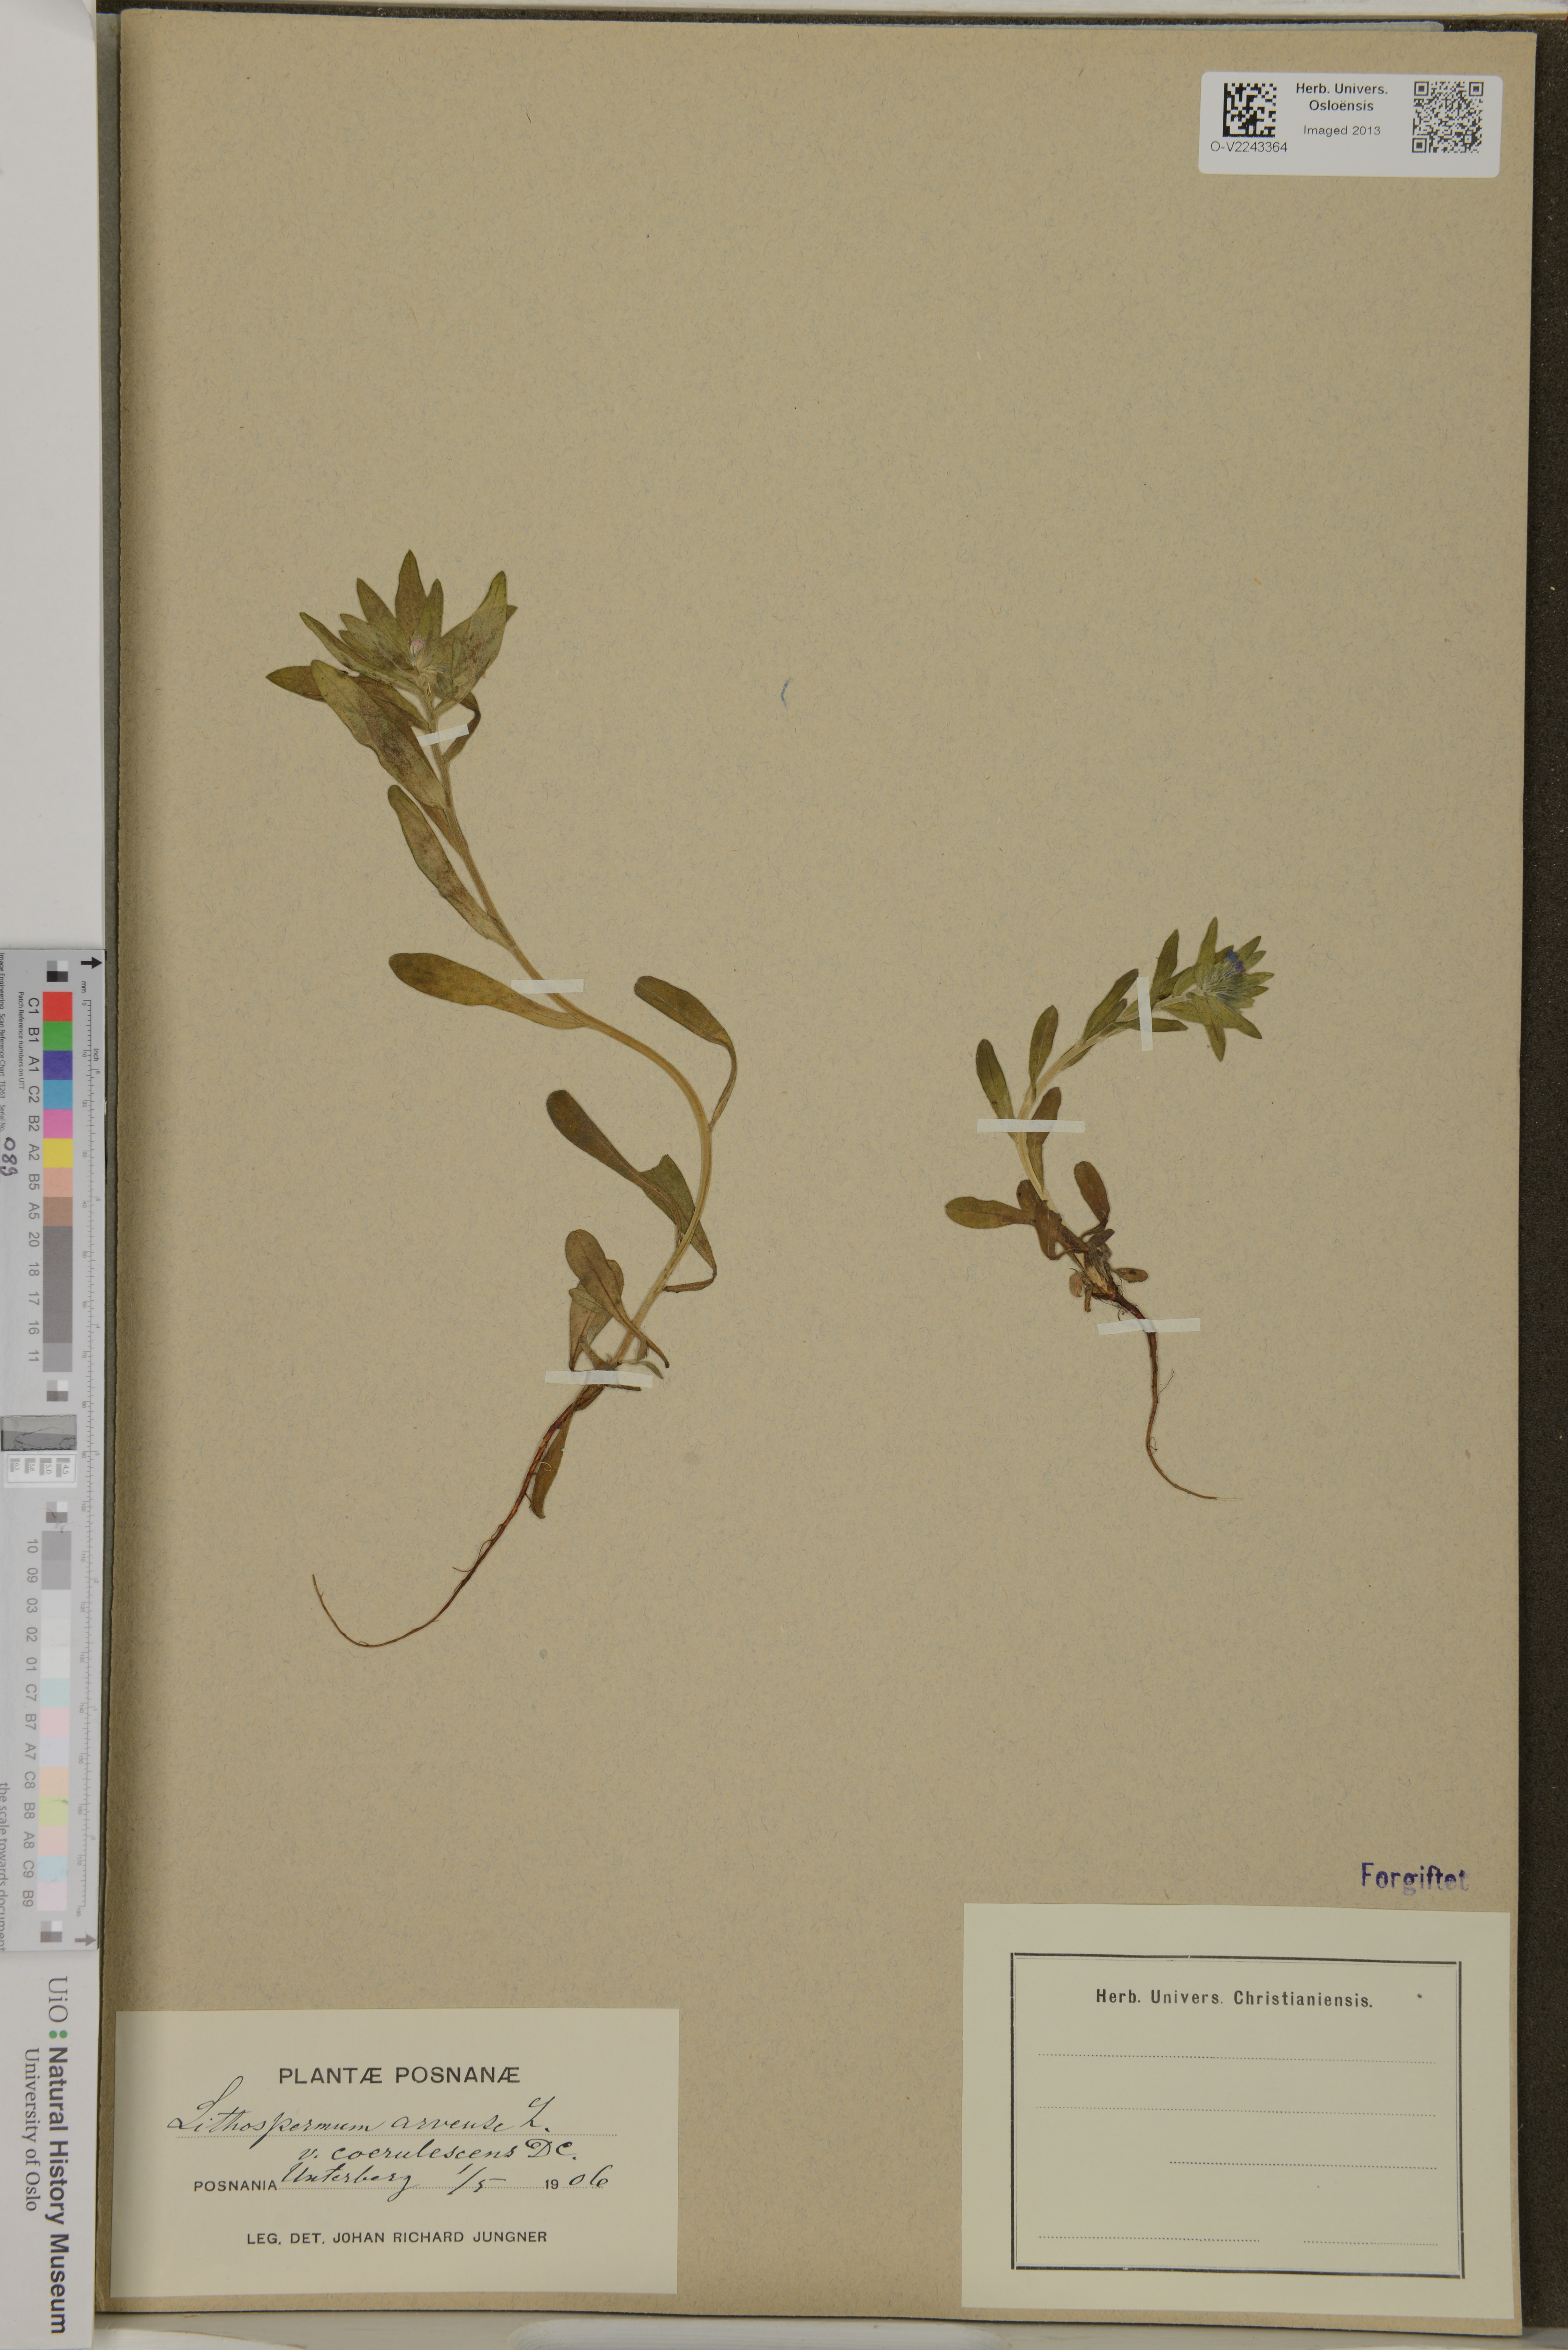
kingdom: Plantae
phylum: Tracheophyta
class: Magnoliopsida
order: Boraginales
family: Boraginaceae
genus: Buglossoides
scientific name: Buglossoides arvensis
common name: Corn gromwell
